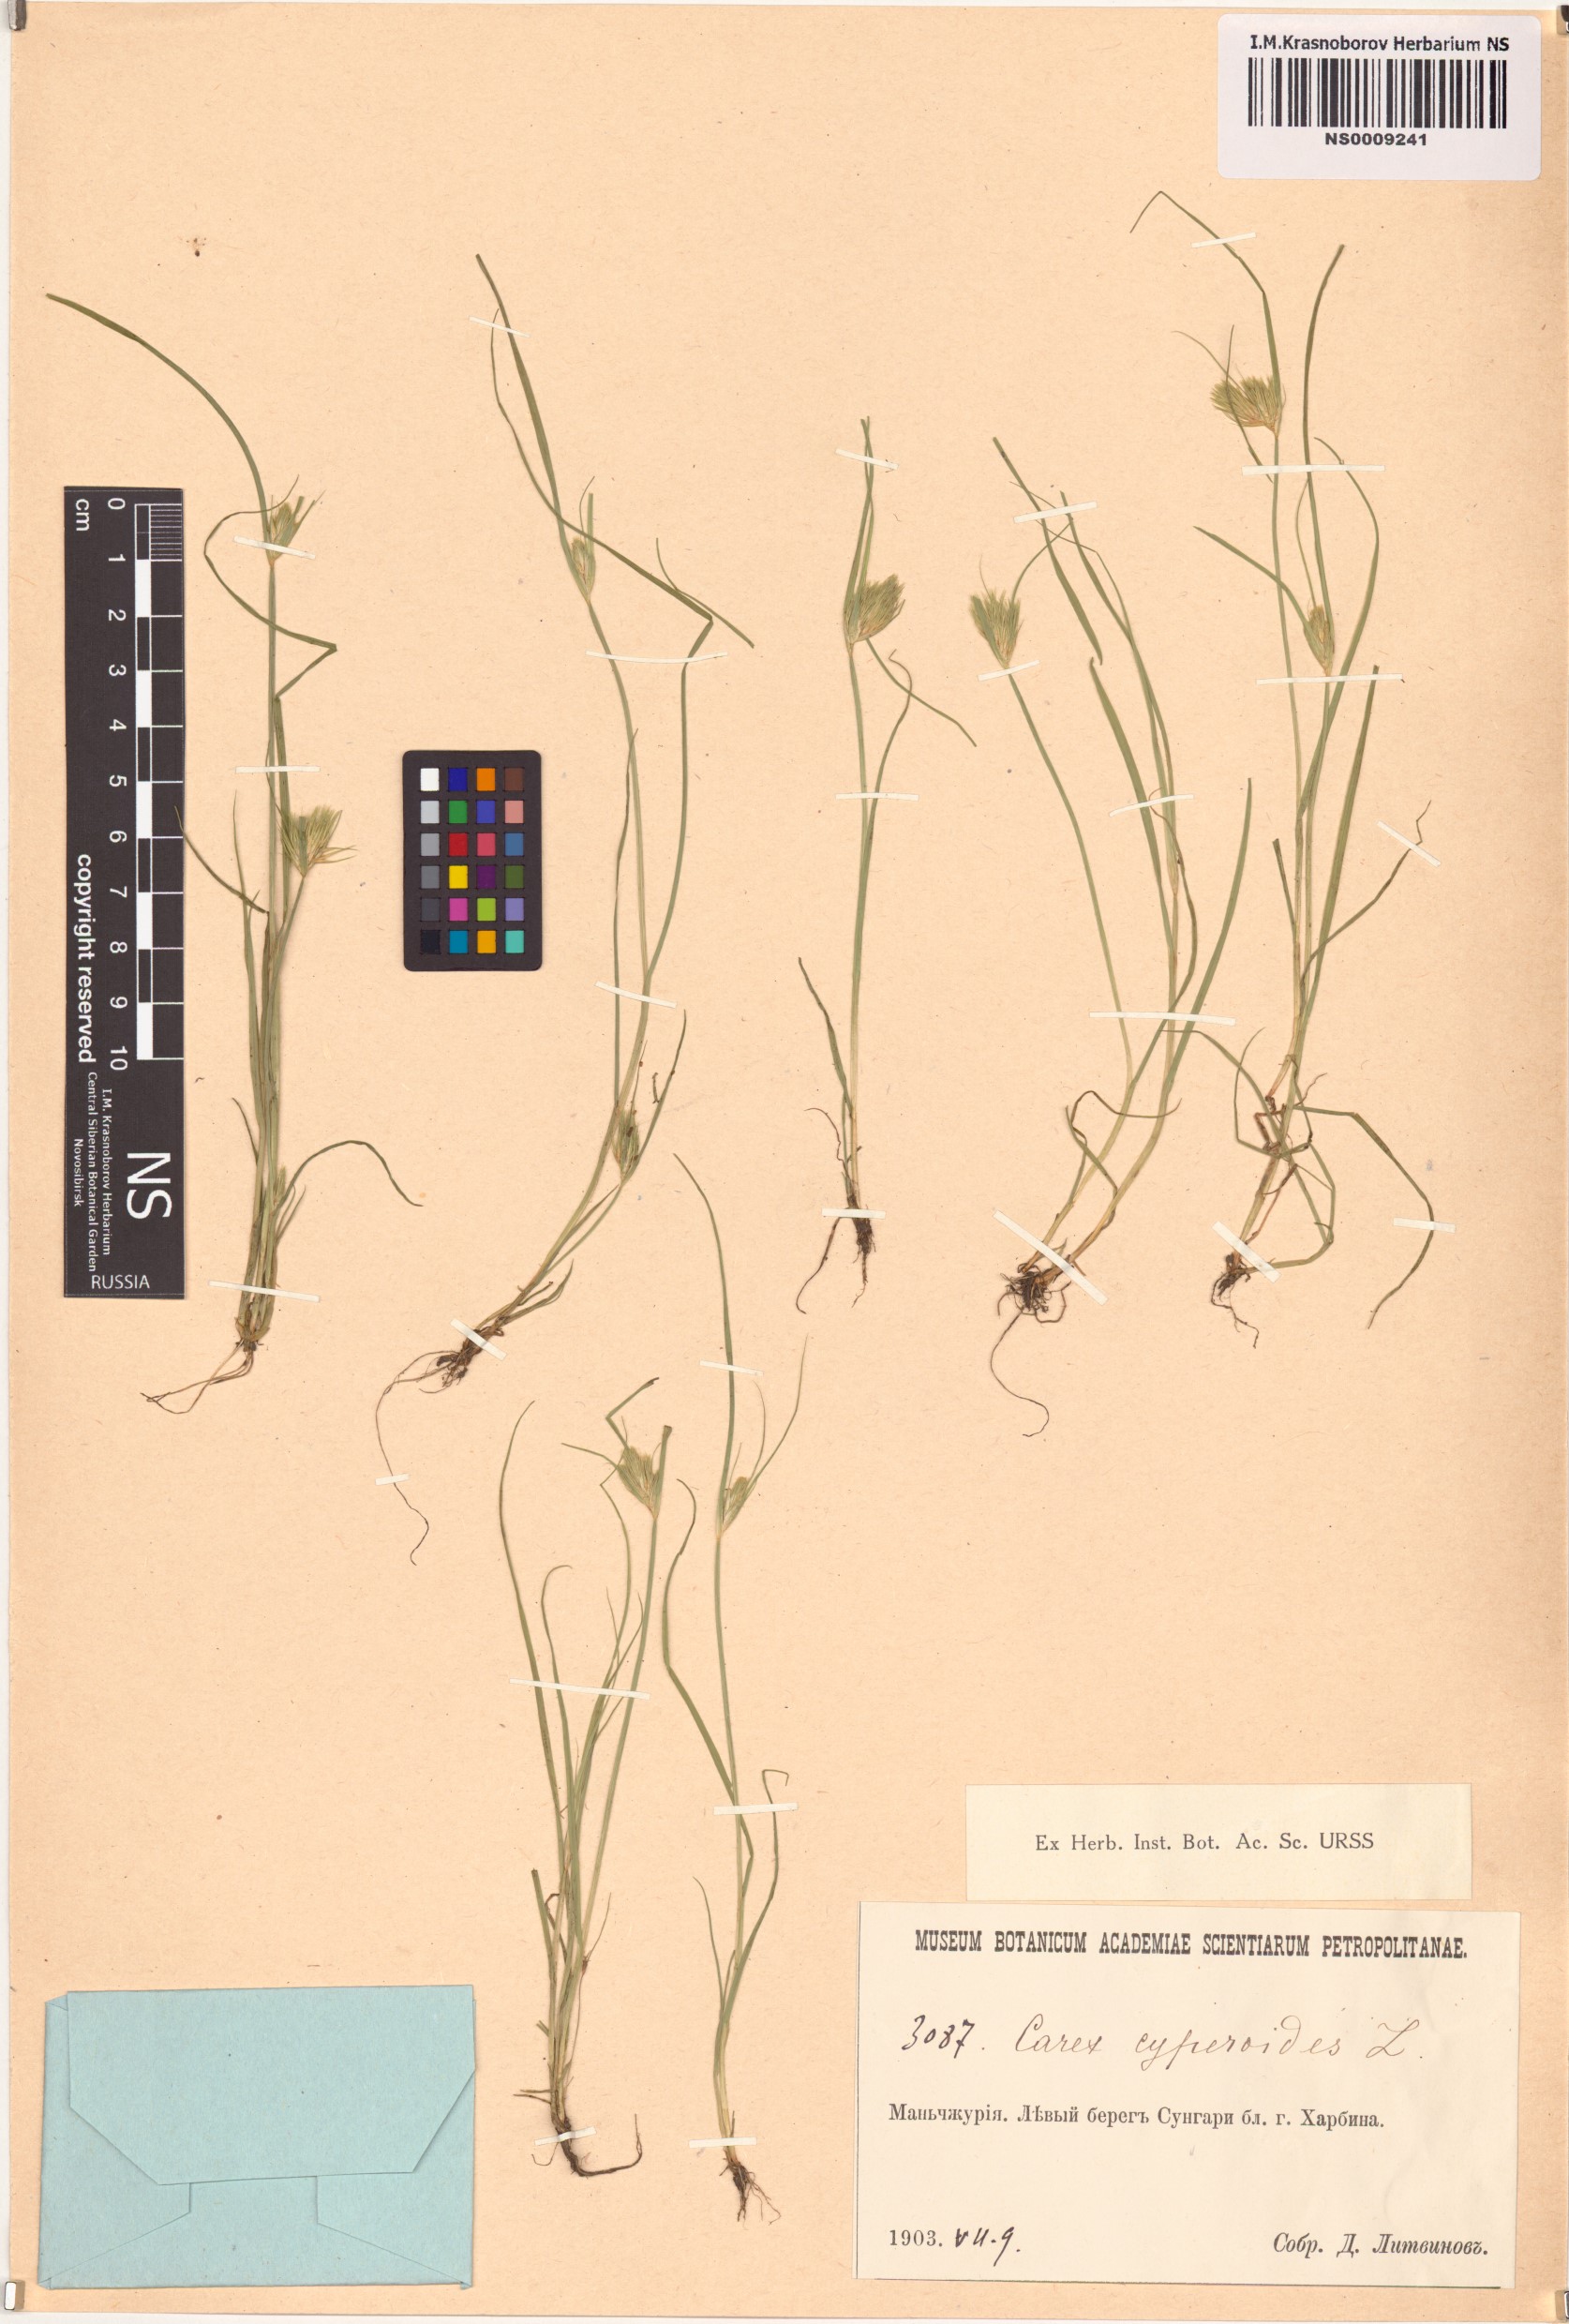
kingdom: Plantae
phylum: Tracheophyta
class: Liliopsida
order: Poales
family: Cyperaceae
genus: Carex
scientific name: Carex bohemica
